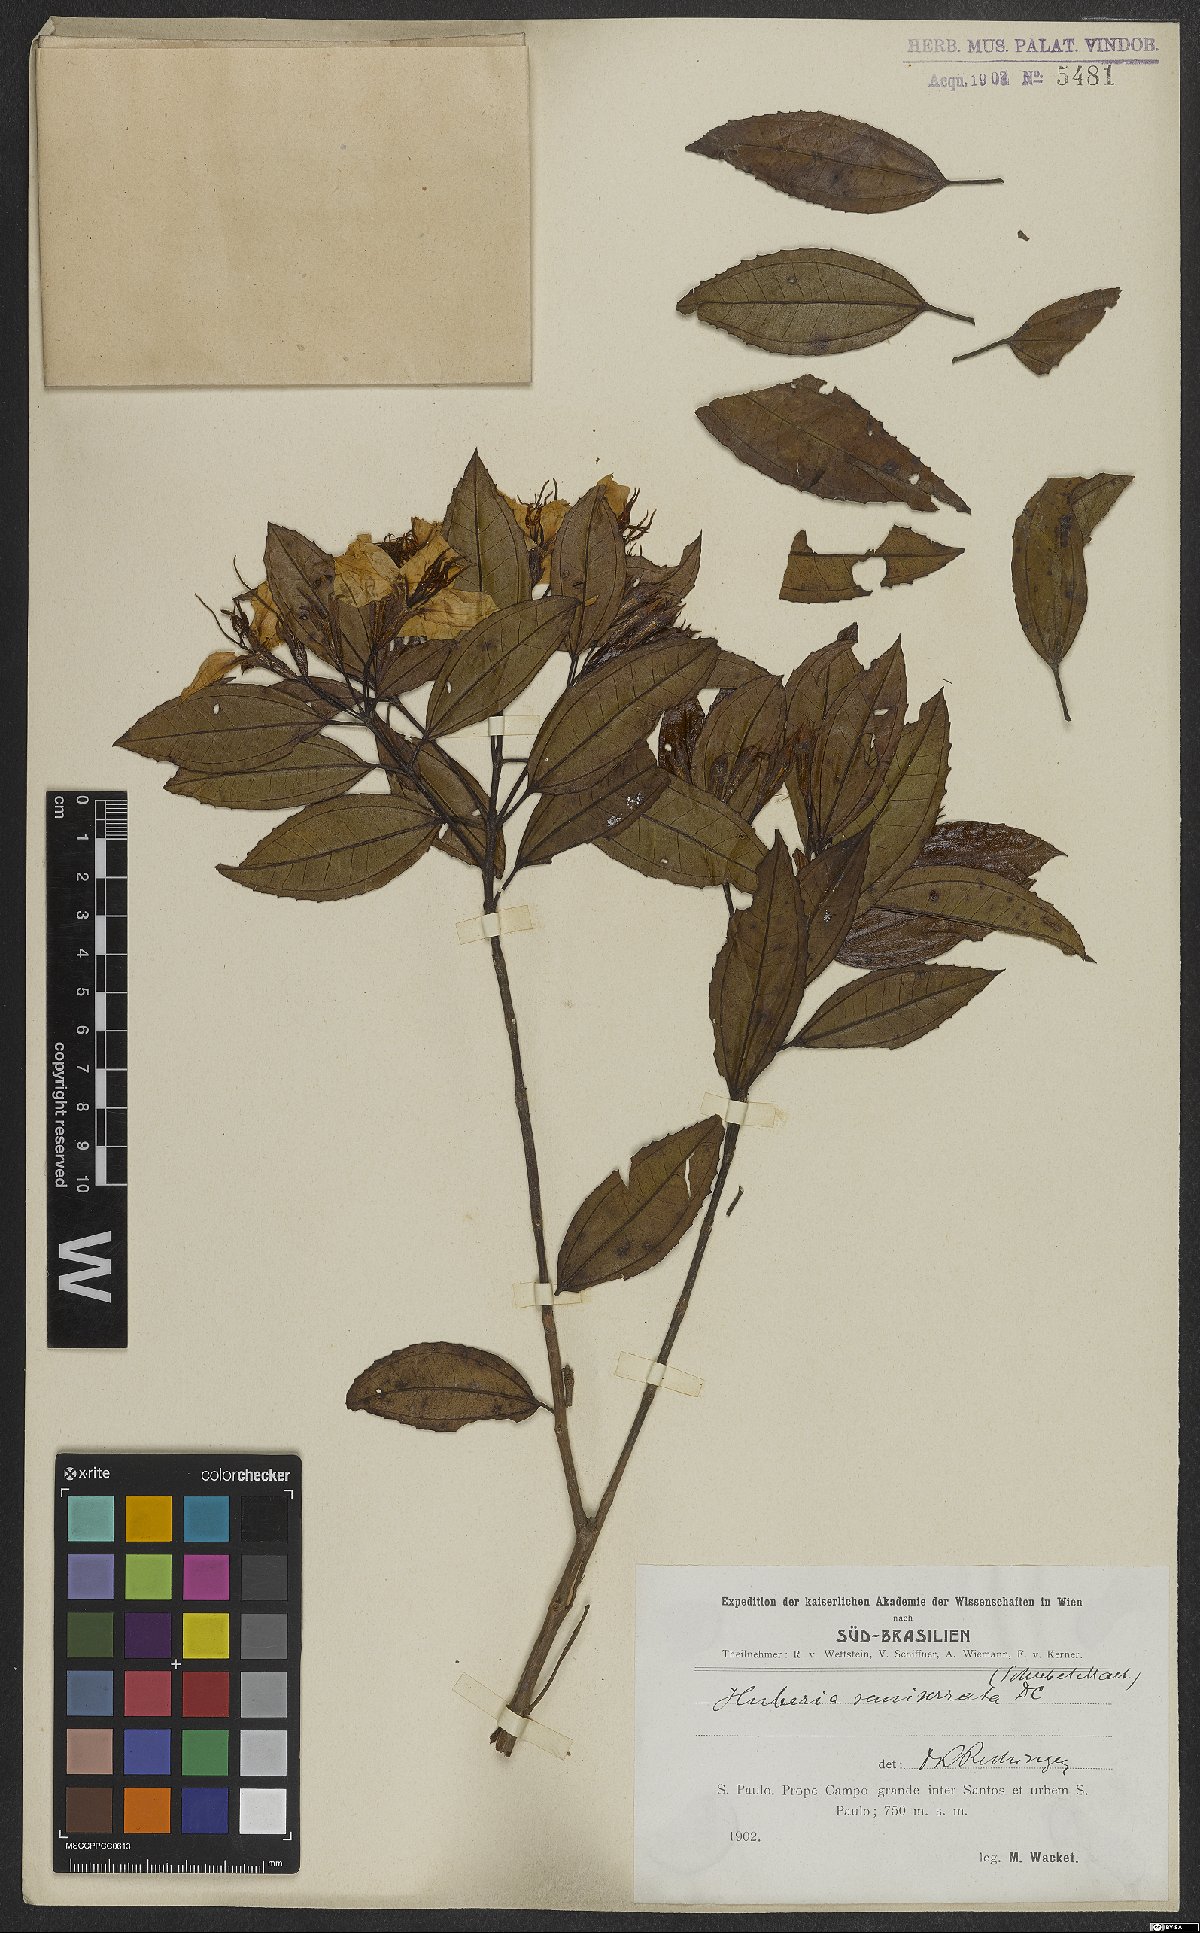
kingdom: Plantae
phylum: Tracheophyta
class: Magnoliopsida
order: Myrtales
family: Melastomataceae
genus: Huberia
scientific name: Huberia semiserrata
